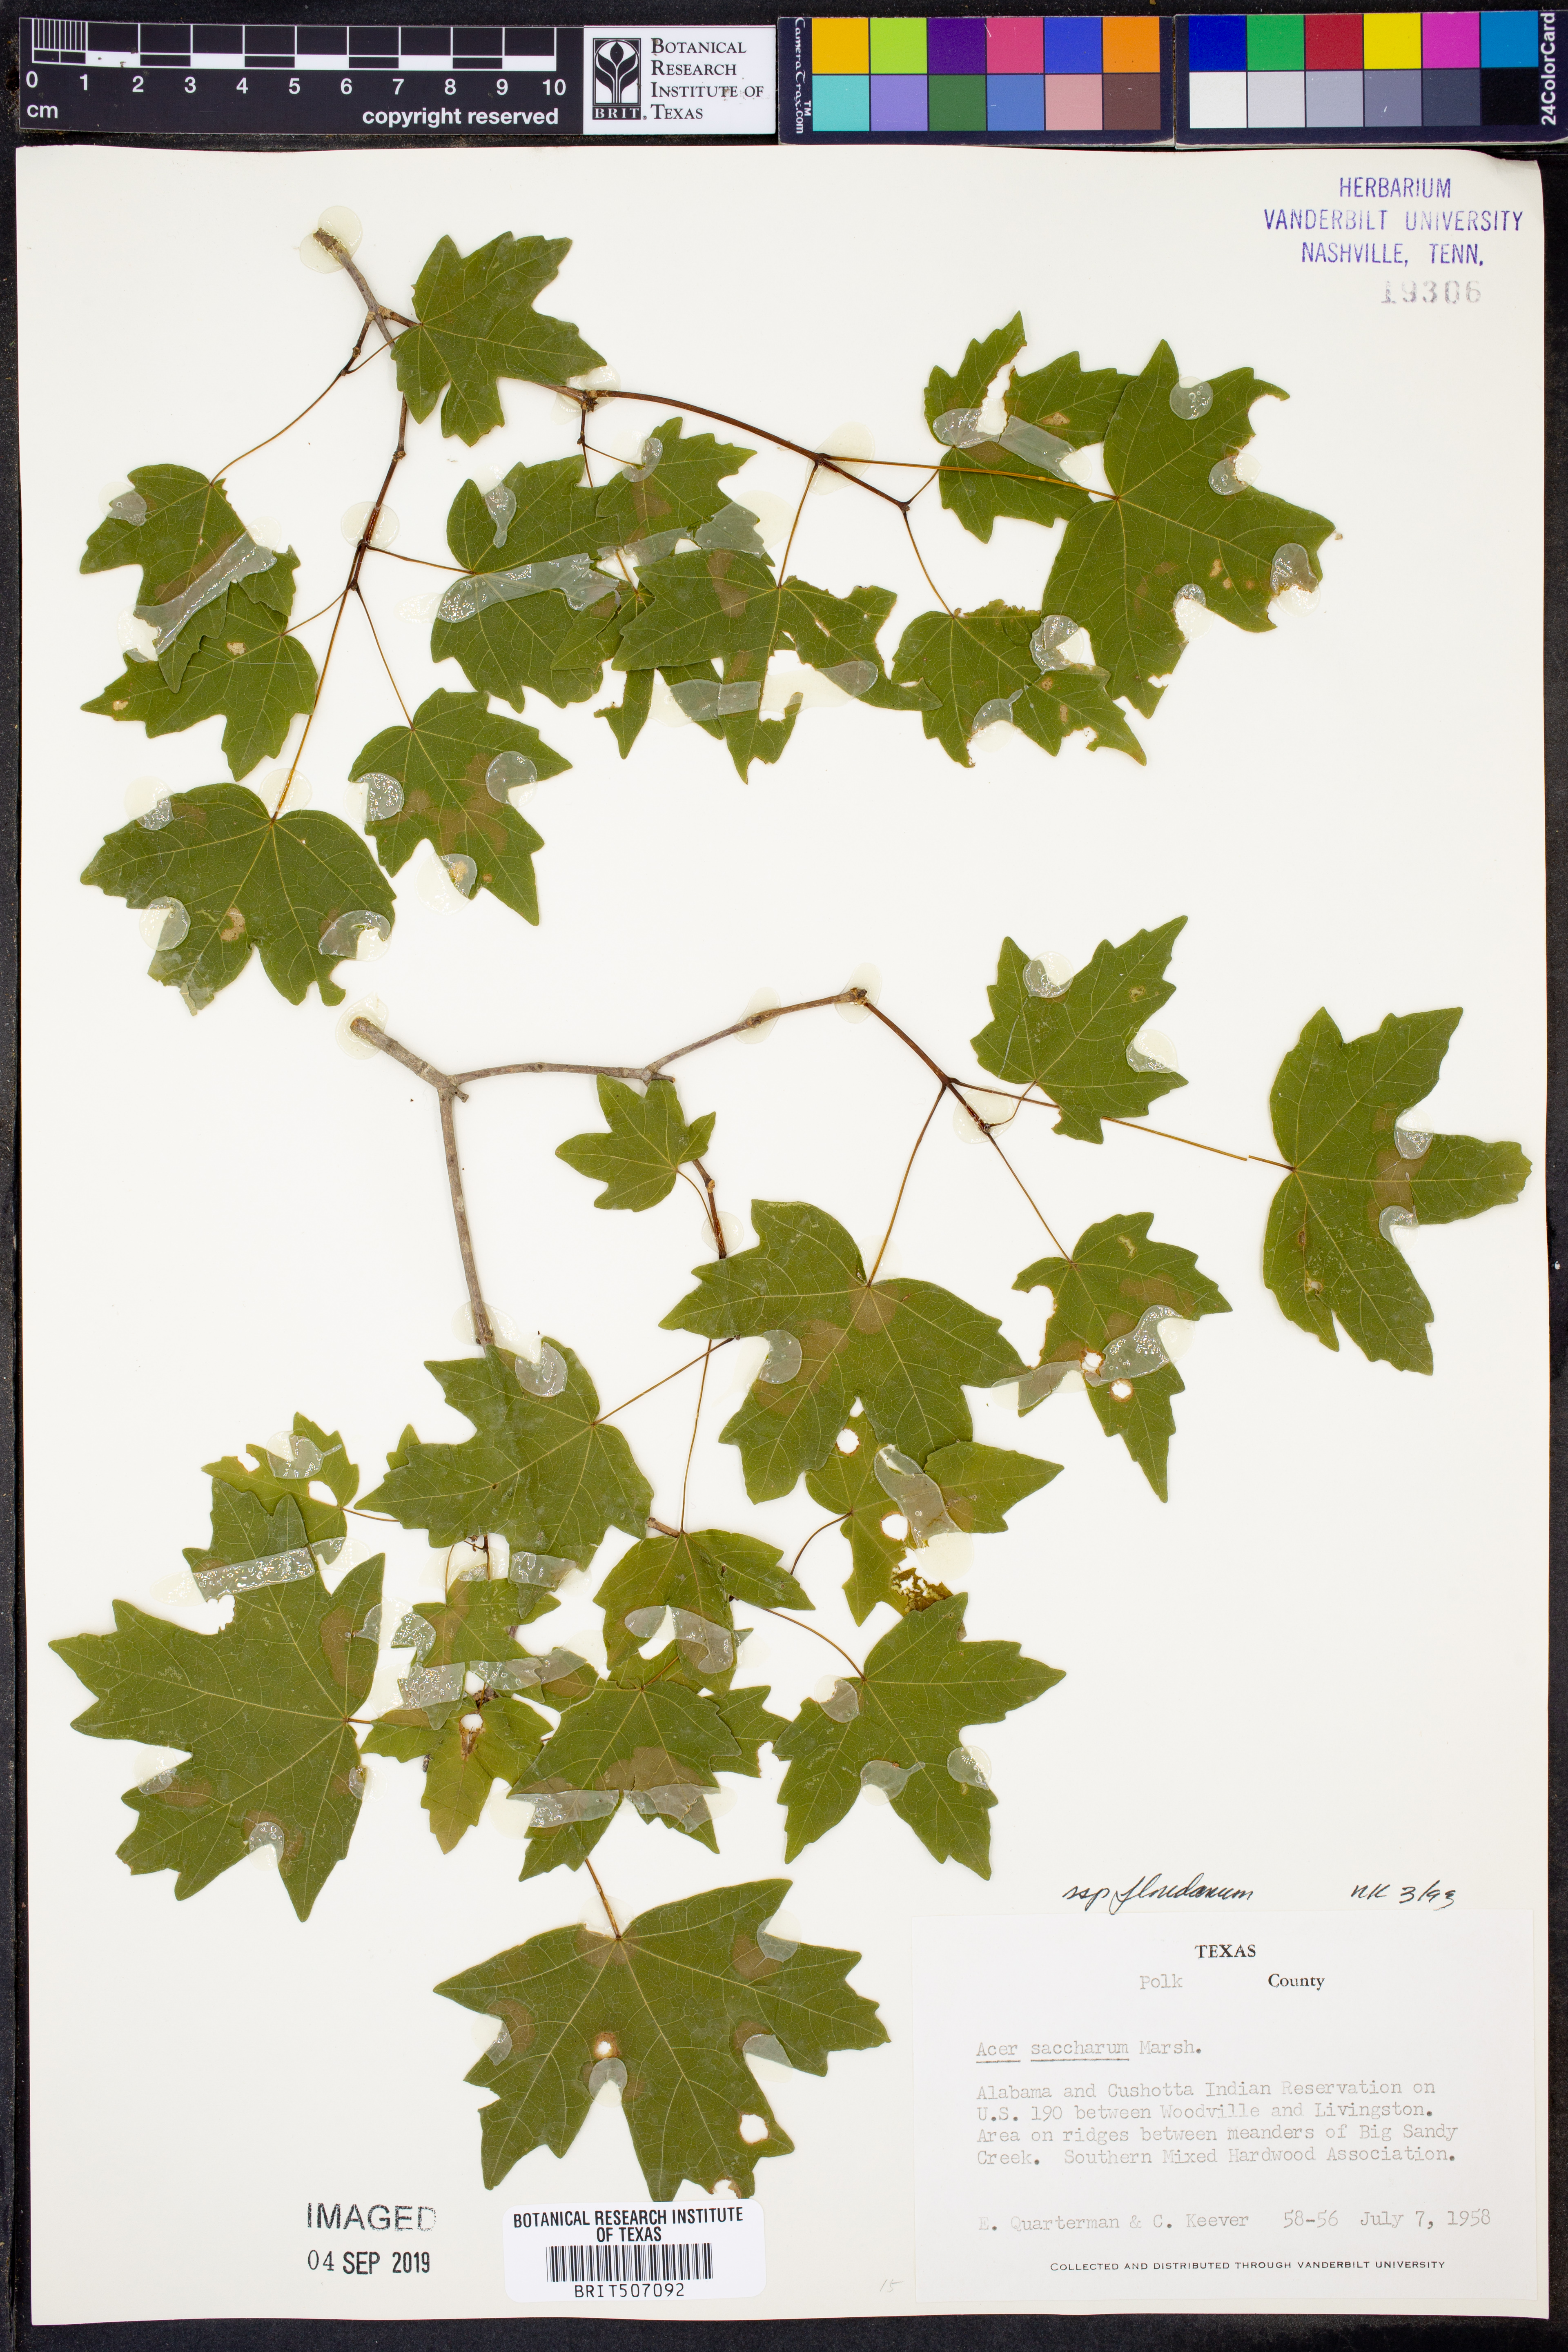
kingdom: Plantae
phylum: Tracheophyta
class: Magnoliopsida
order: Sapindales
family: Sapindaceae
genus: Acer
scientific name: Acer barbatum
